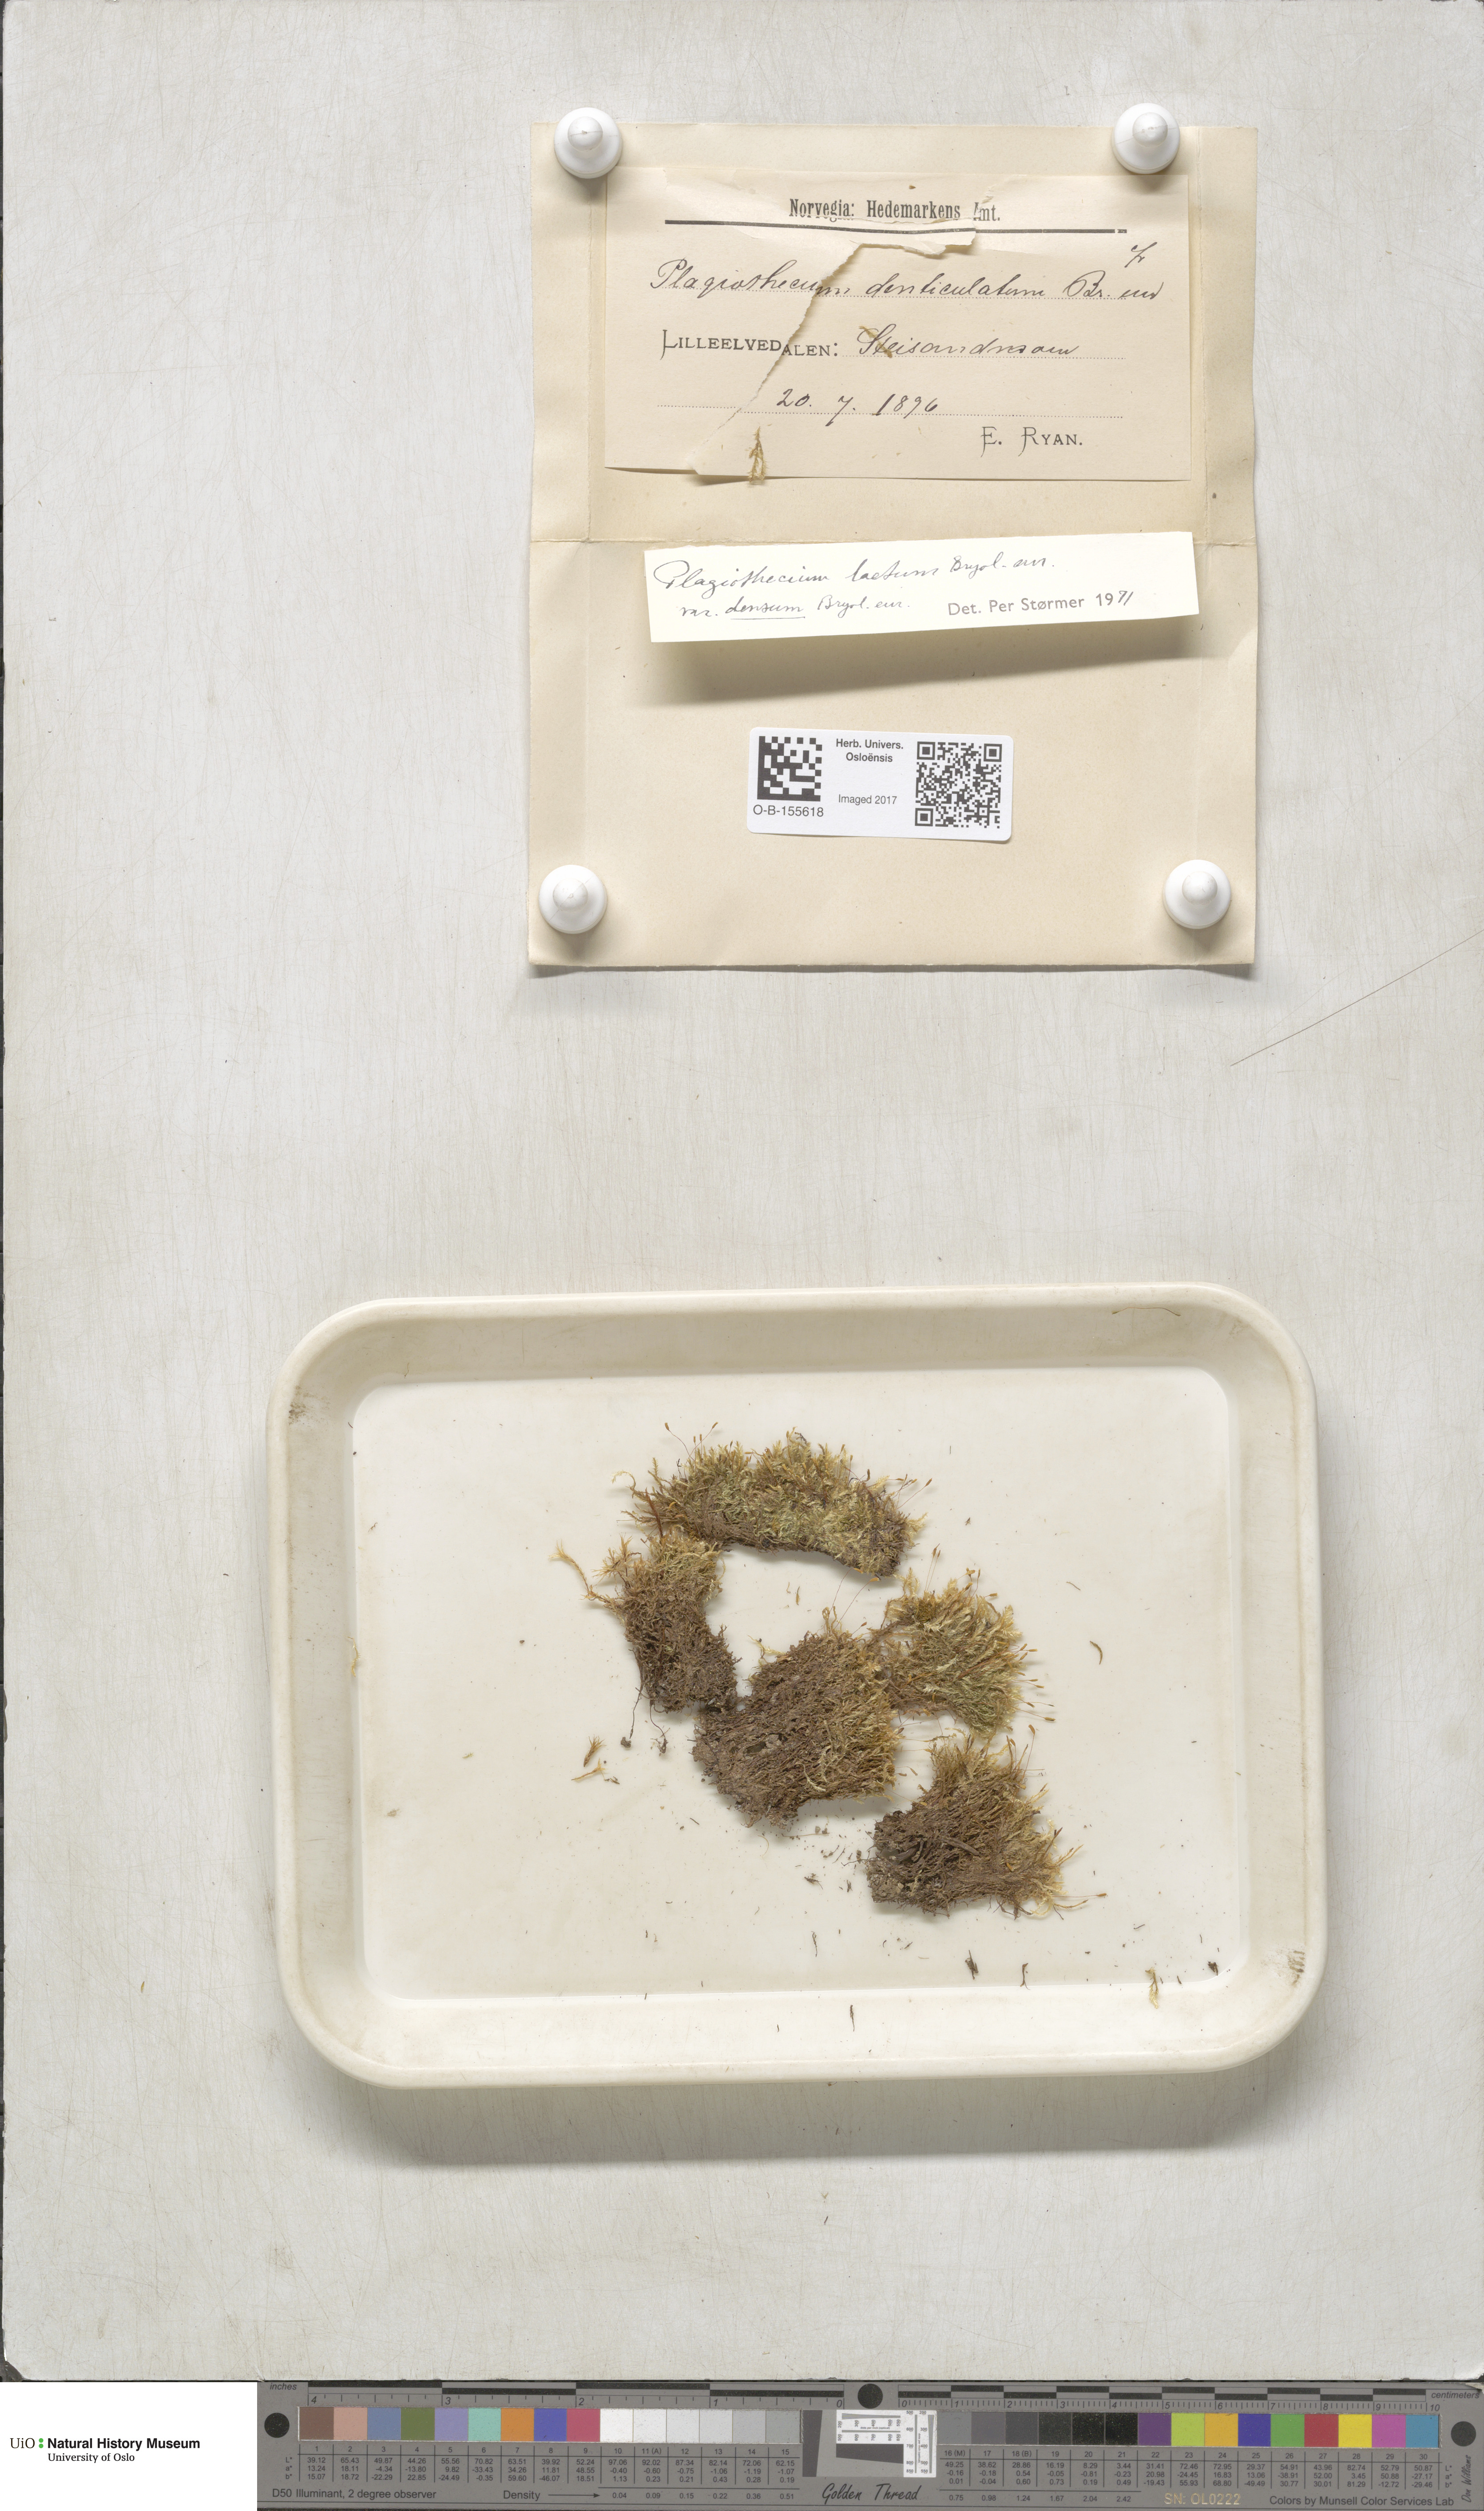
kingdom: Plantae
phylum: Bryophyta
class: Bryopsida
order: Hypnales
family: Plagiotheciaceae
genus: Plagiothecium
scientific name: Plagiothecium denticulatum
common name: Dented silk moss
